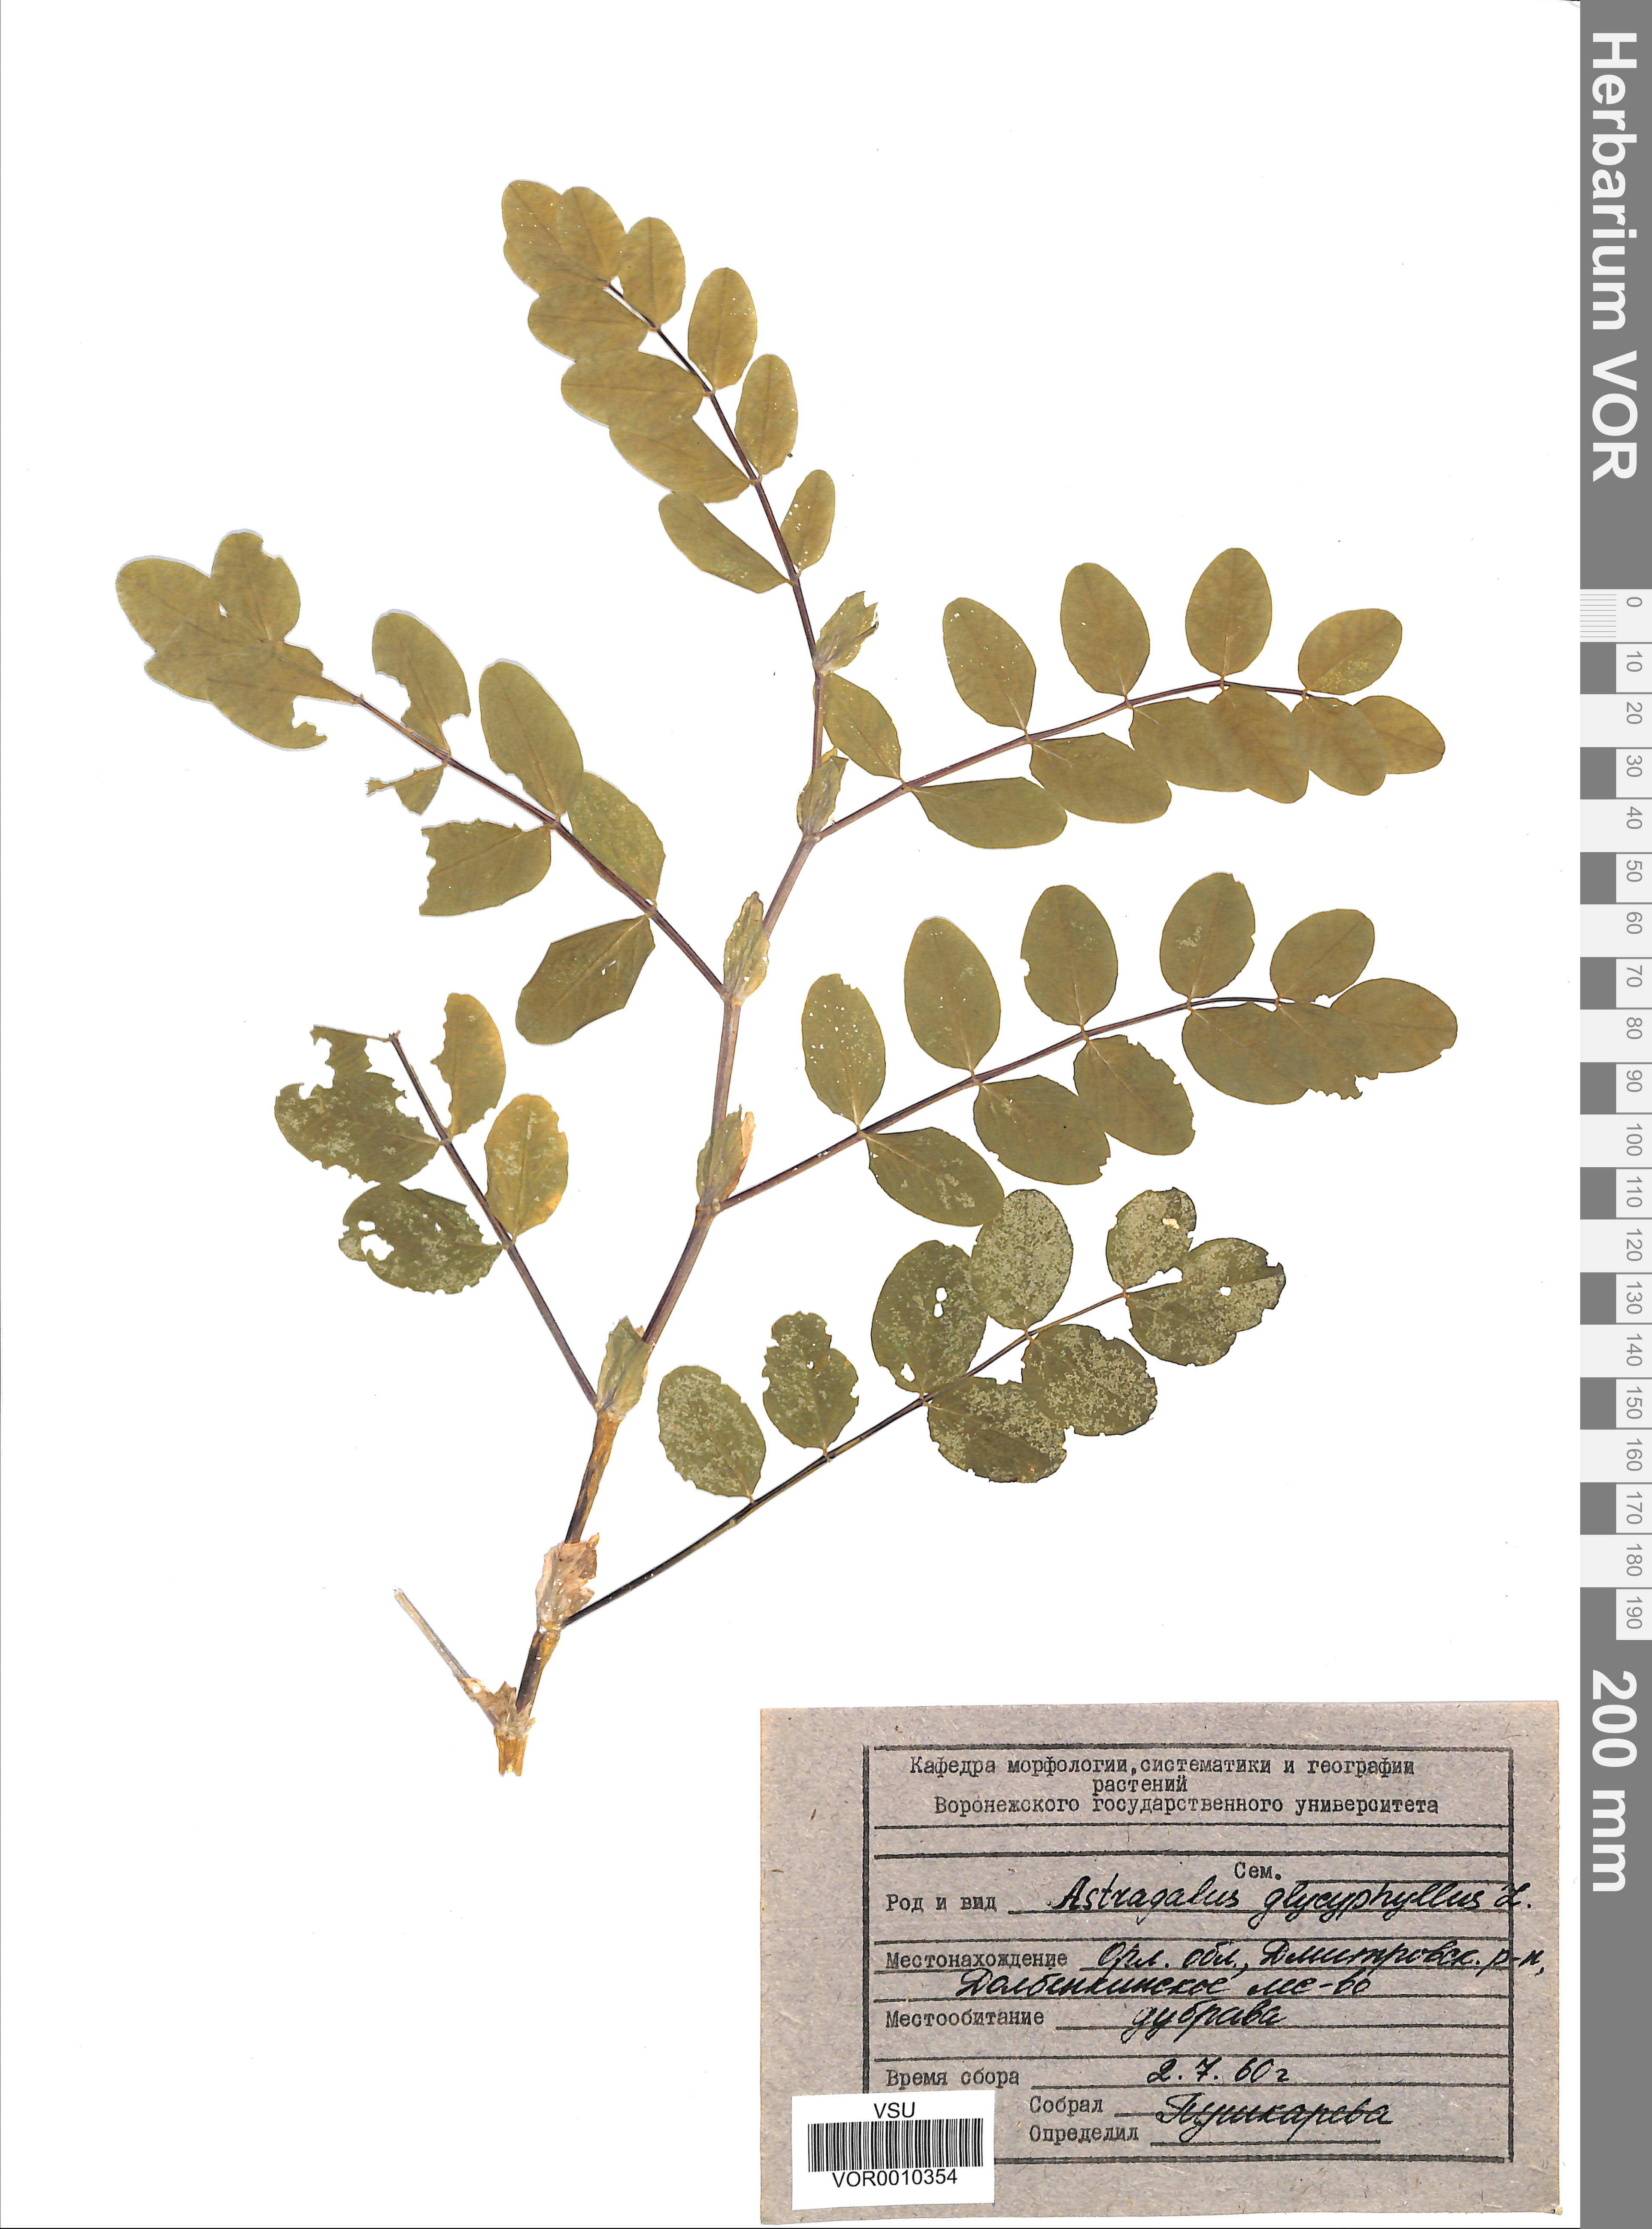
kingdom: Plantae
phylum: Tracheophyta
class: Magnoliopsida
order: Fabales
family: Fabaceae
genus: Astragalus
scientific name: Astragalus glycyphyllos
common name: Wild liquorice
